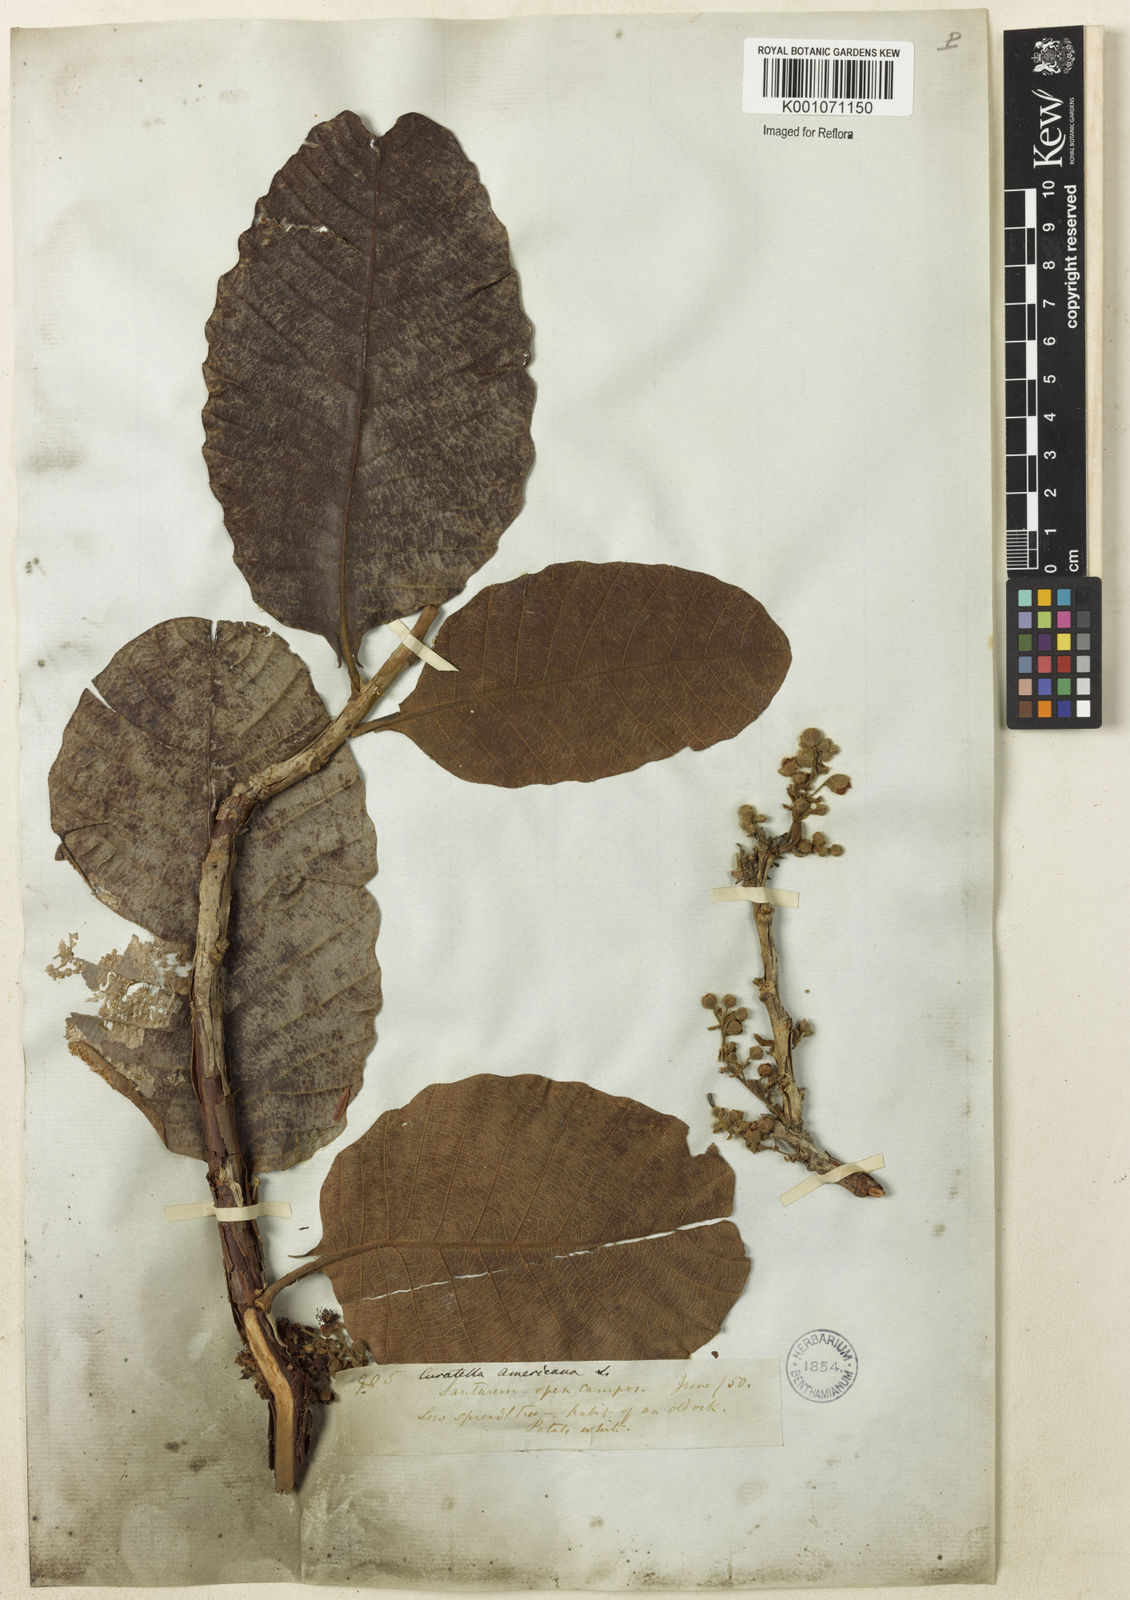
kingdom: Plantae
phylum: Tracheophyta
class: Magnoliopsida
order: Dilleniales
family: Dilleniaceae
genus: Curatella
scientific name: Curatella americana
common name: Sandpaper tree
